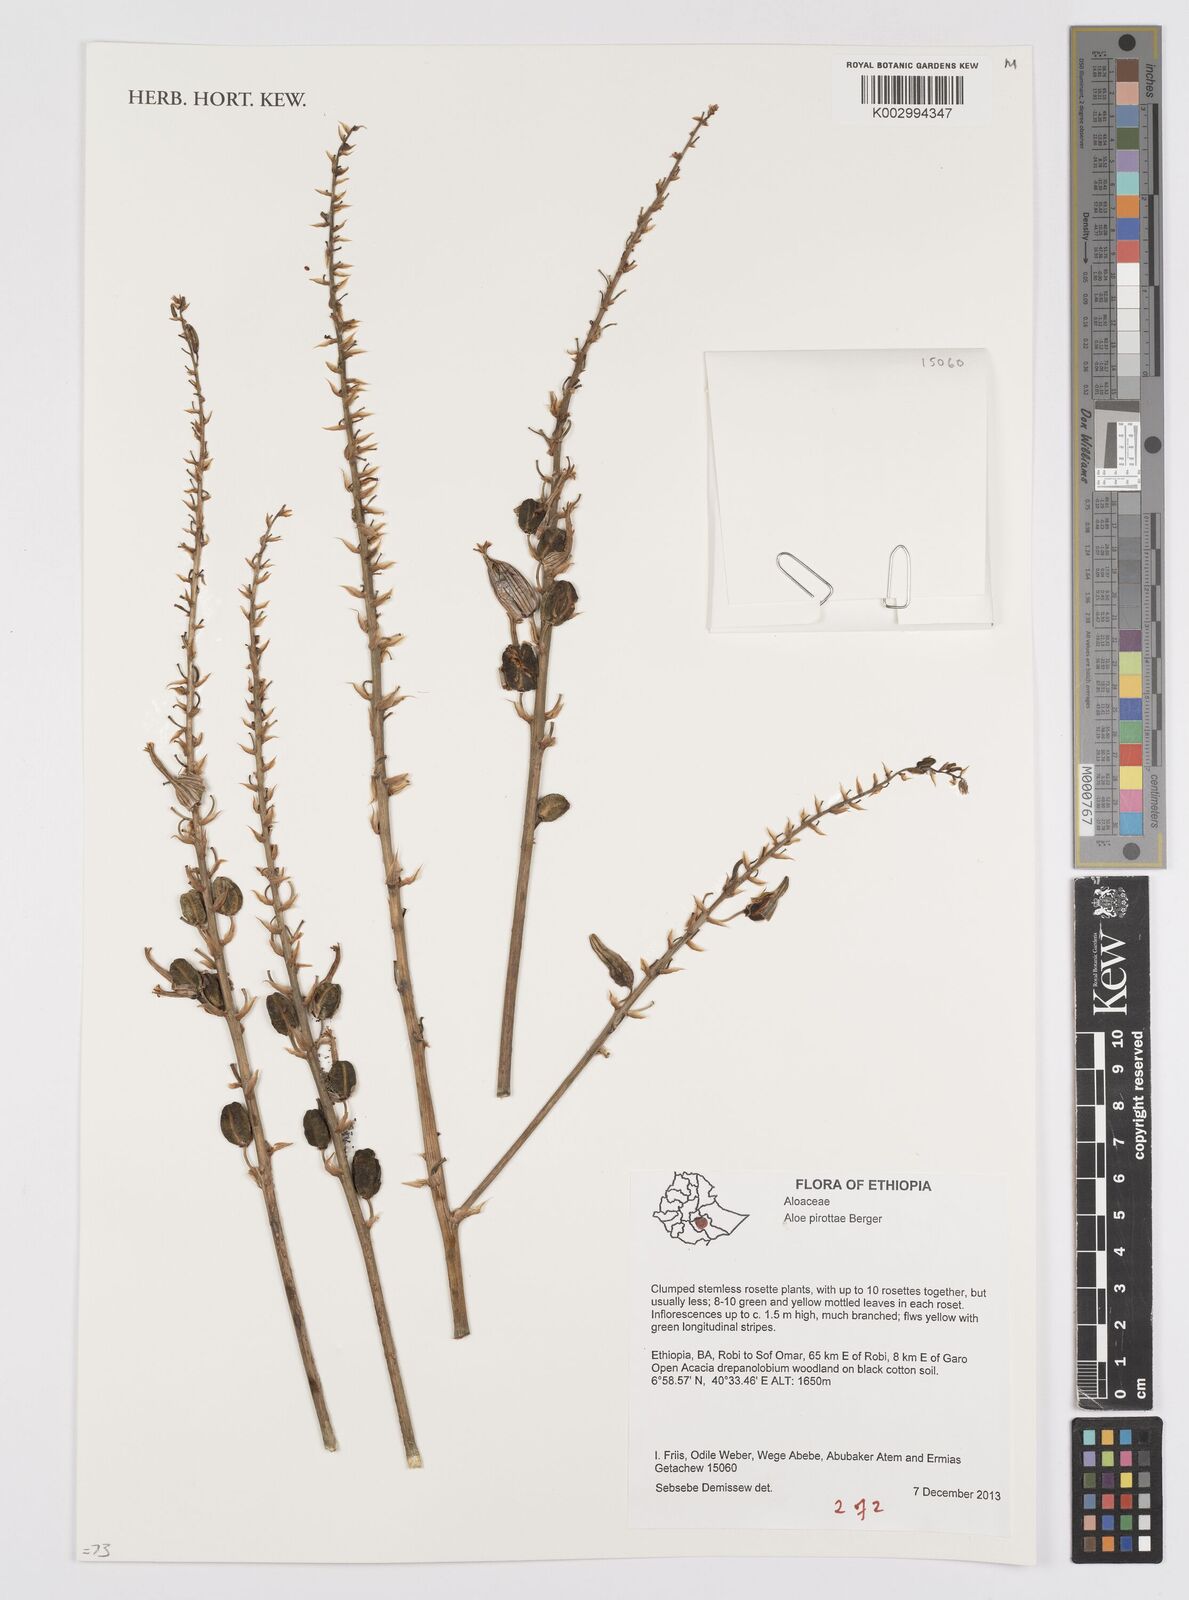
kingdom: Plantae
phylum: Tracheophyta
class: Liliopsida
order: Asparagales
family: Asphodelaceae
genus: Aloe
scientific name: Aloe pirottae
